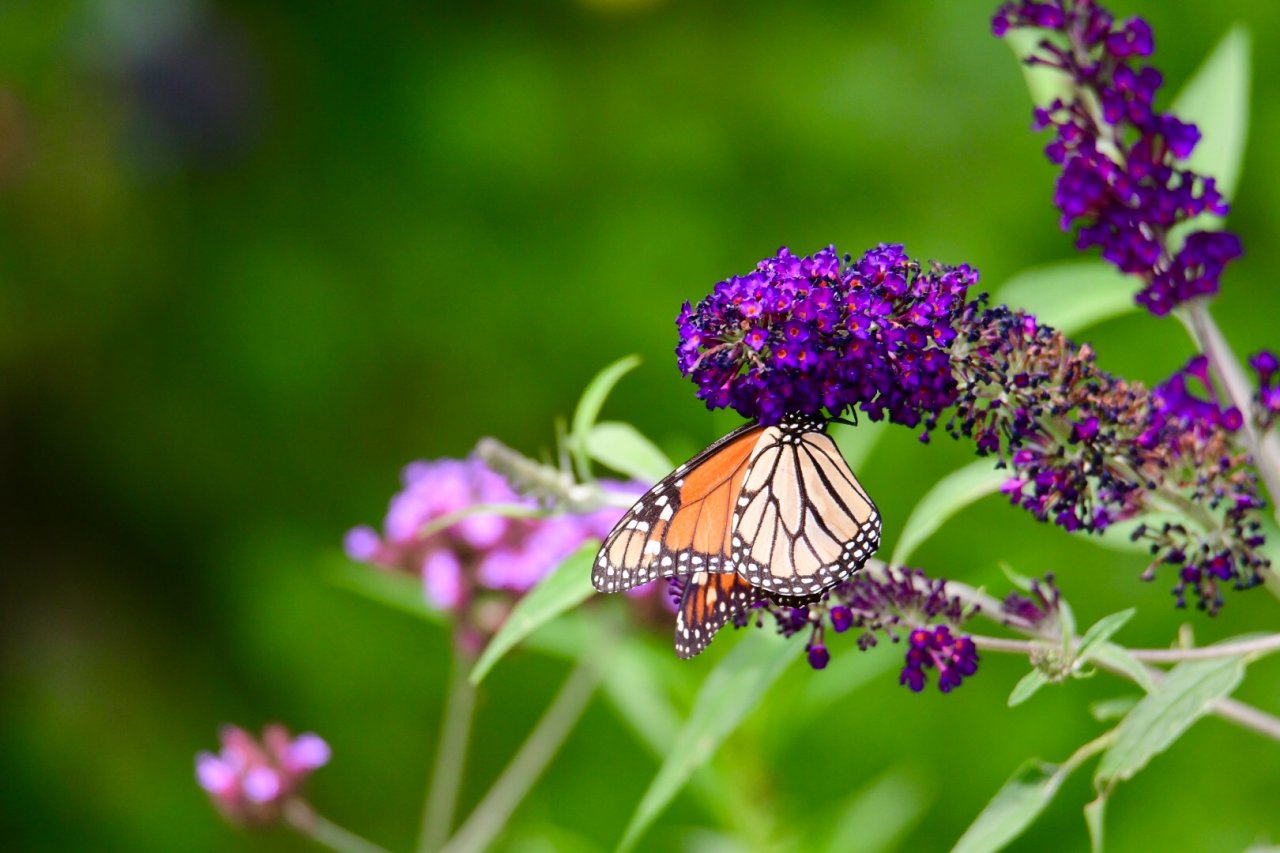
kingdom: Animalia
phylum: Arthropoda
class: Insecta
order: Lepidoptera
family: Nymphalidae
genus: Danaus
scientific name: Danaus plexippus
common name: Monarch
